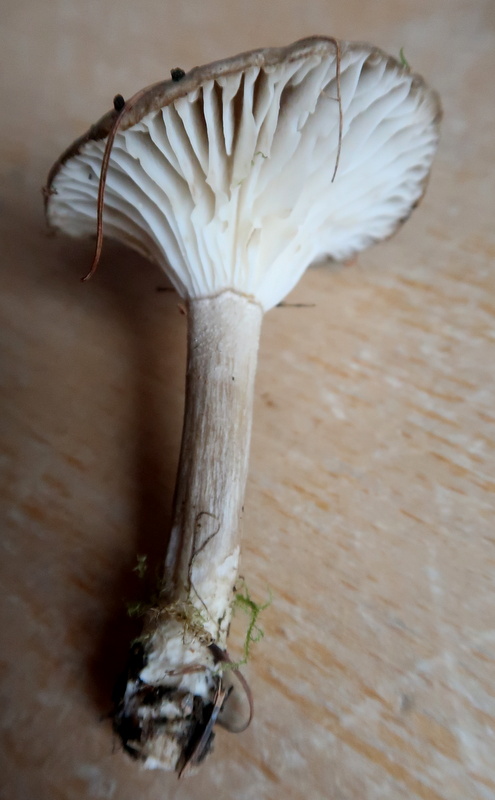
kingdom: Fungi
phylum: Basidiomycota
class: Agaricomycetes
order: Agaricales
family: Tricholomataceae
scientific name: Tricholomataceae
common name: ridderhatfamilien
